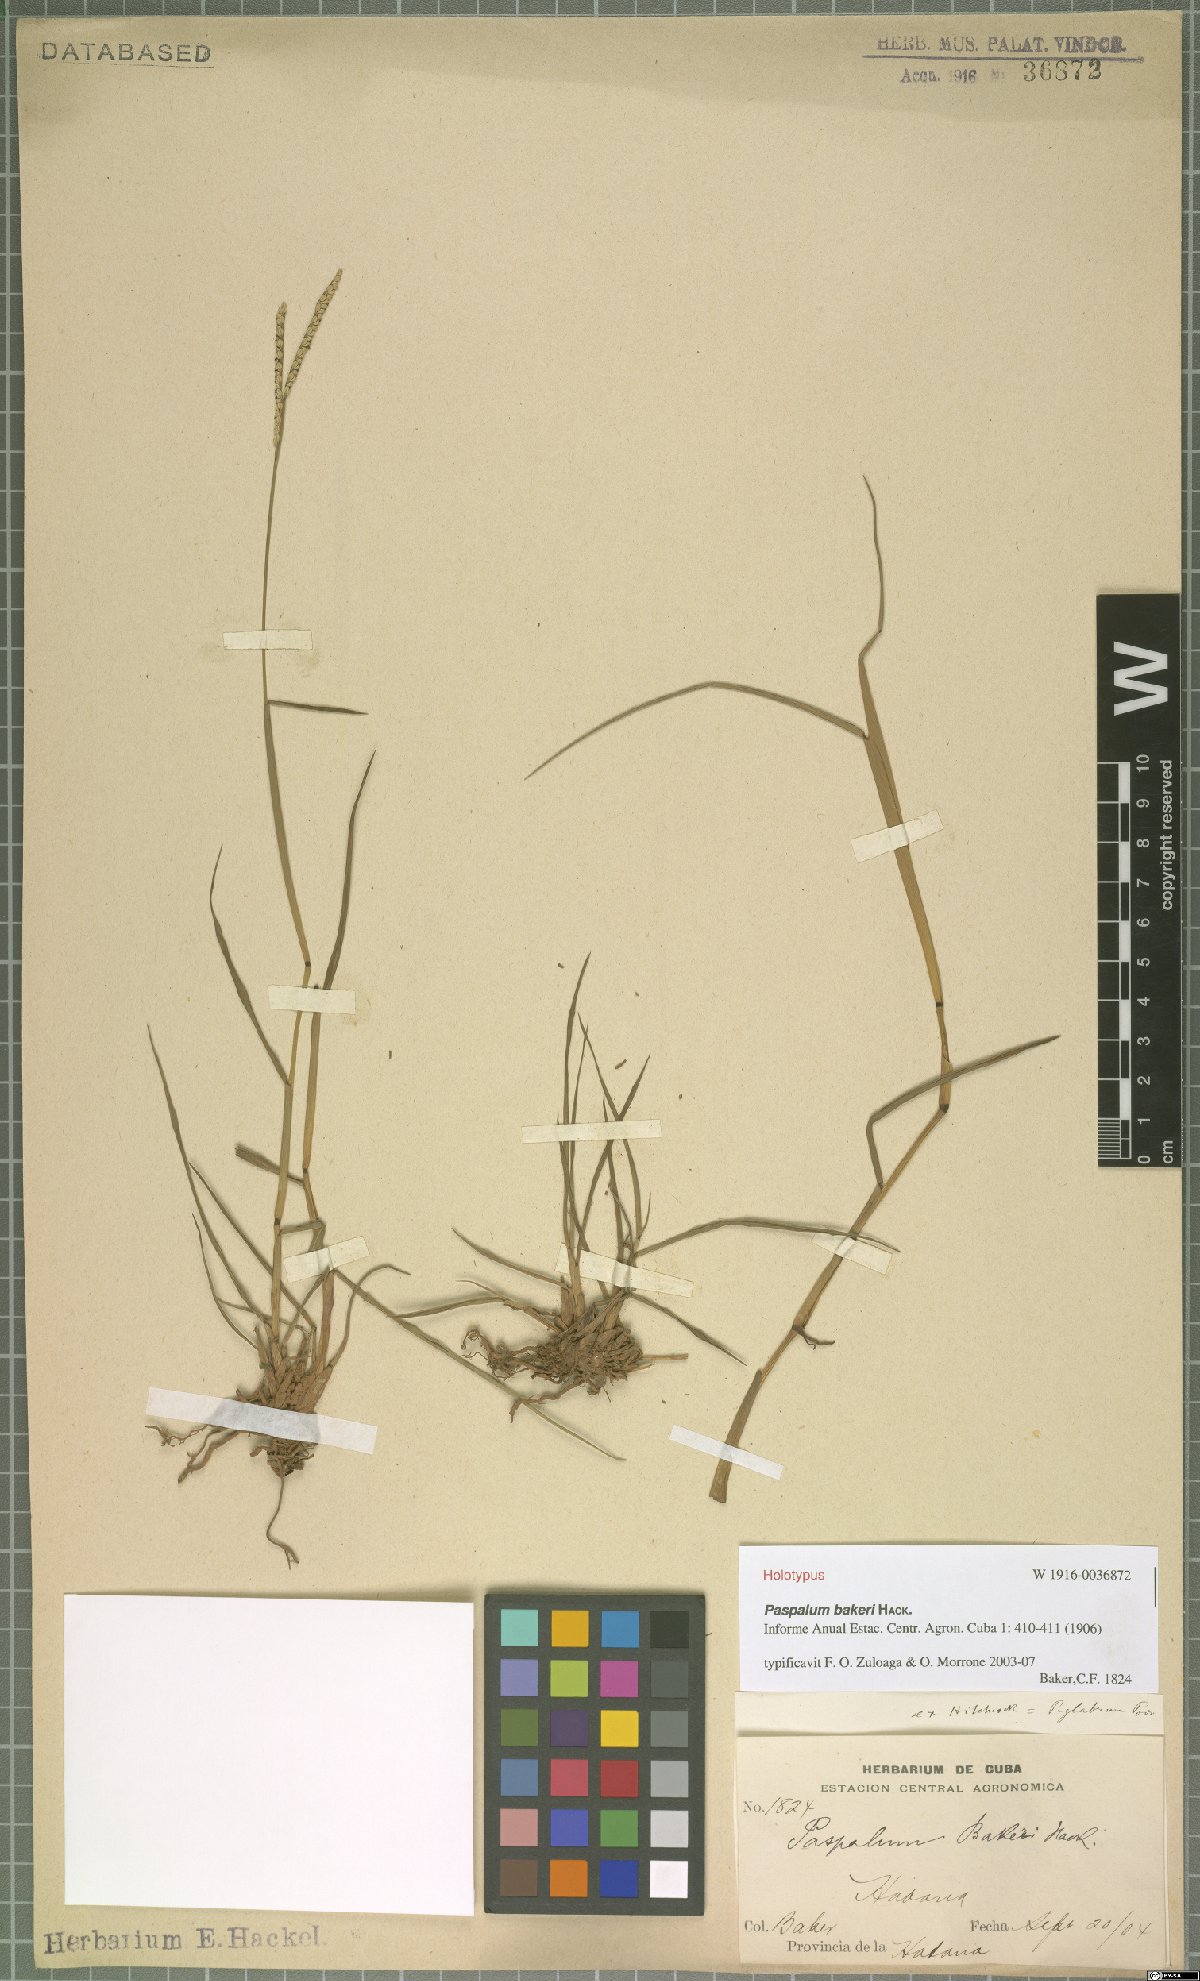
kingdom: Plantae
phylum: Tracheophyta
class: Liliopsida
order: Poales
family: Poaceae
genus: Paspalum
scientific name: Paspalum bakeri
